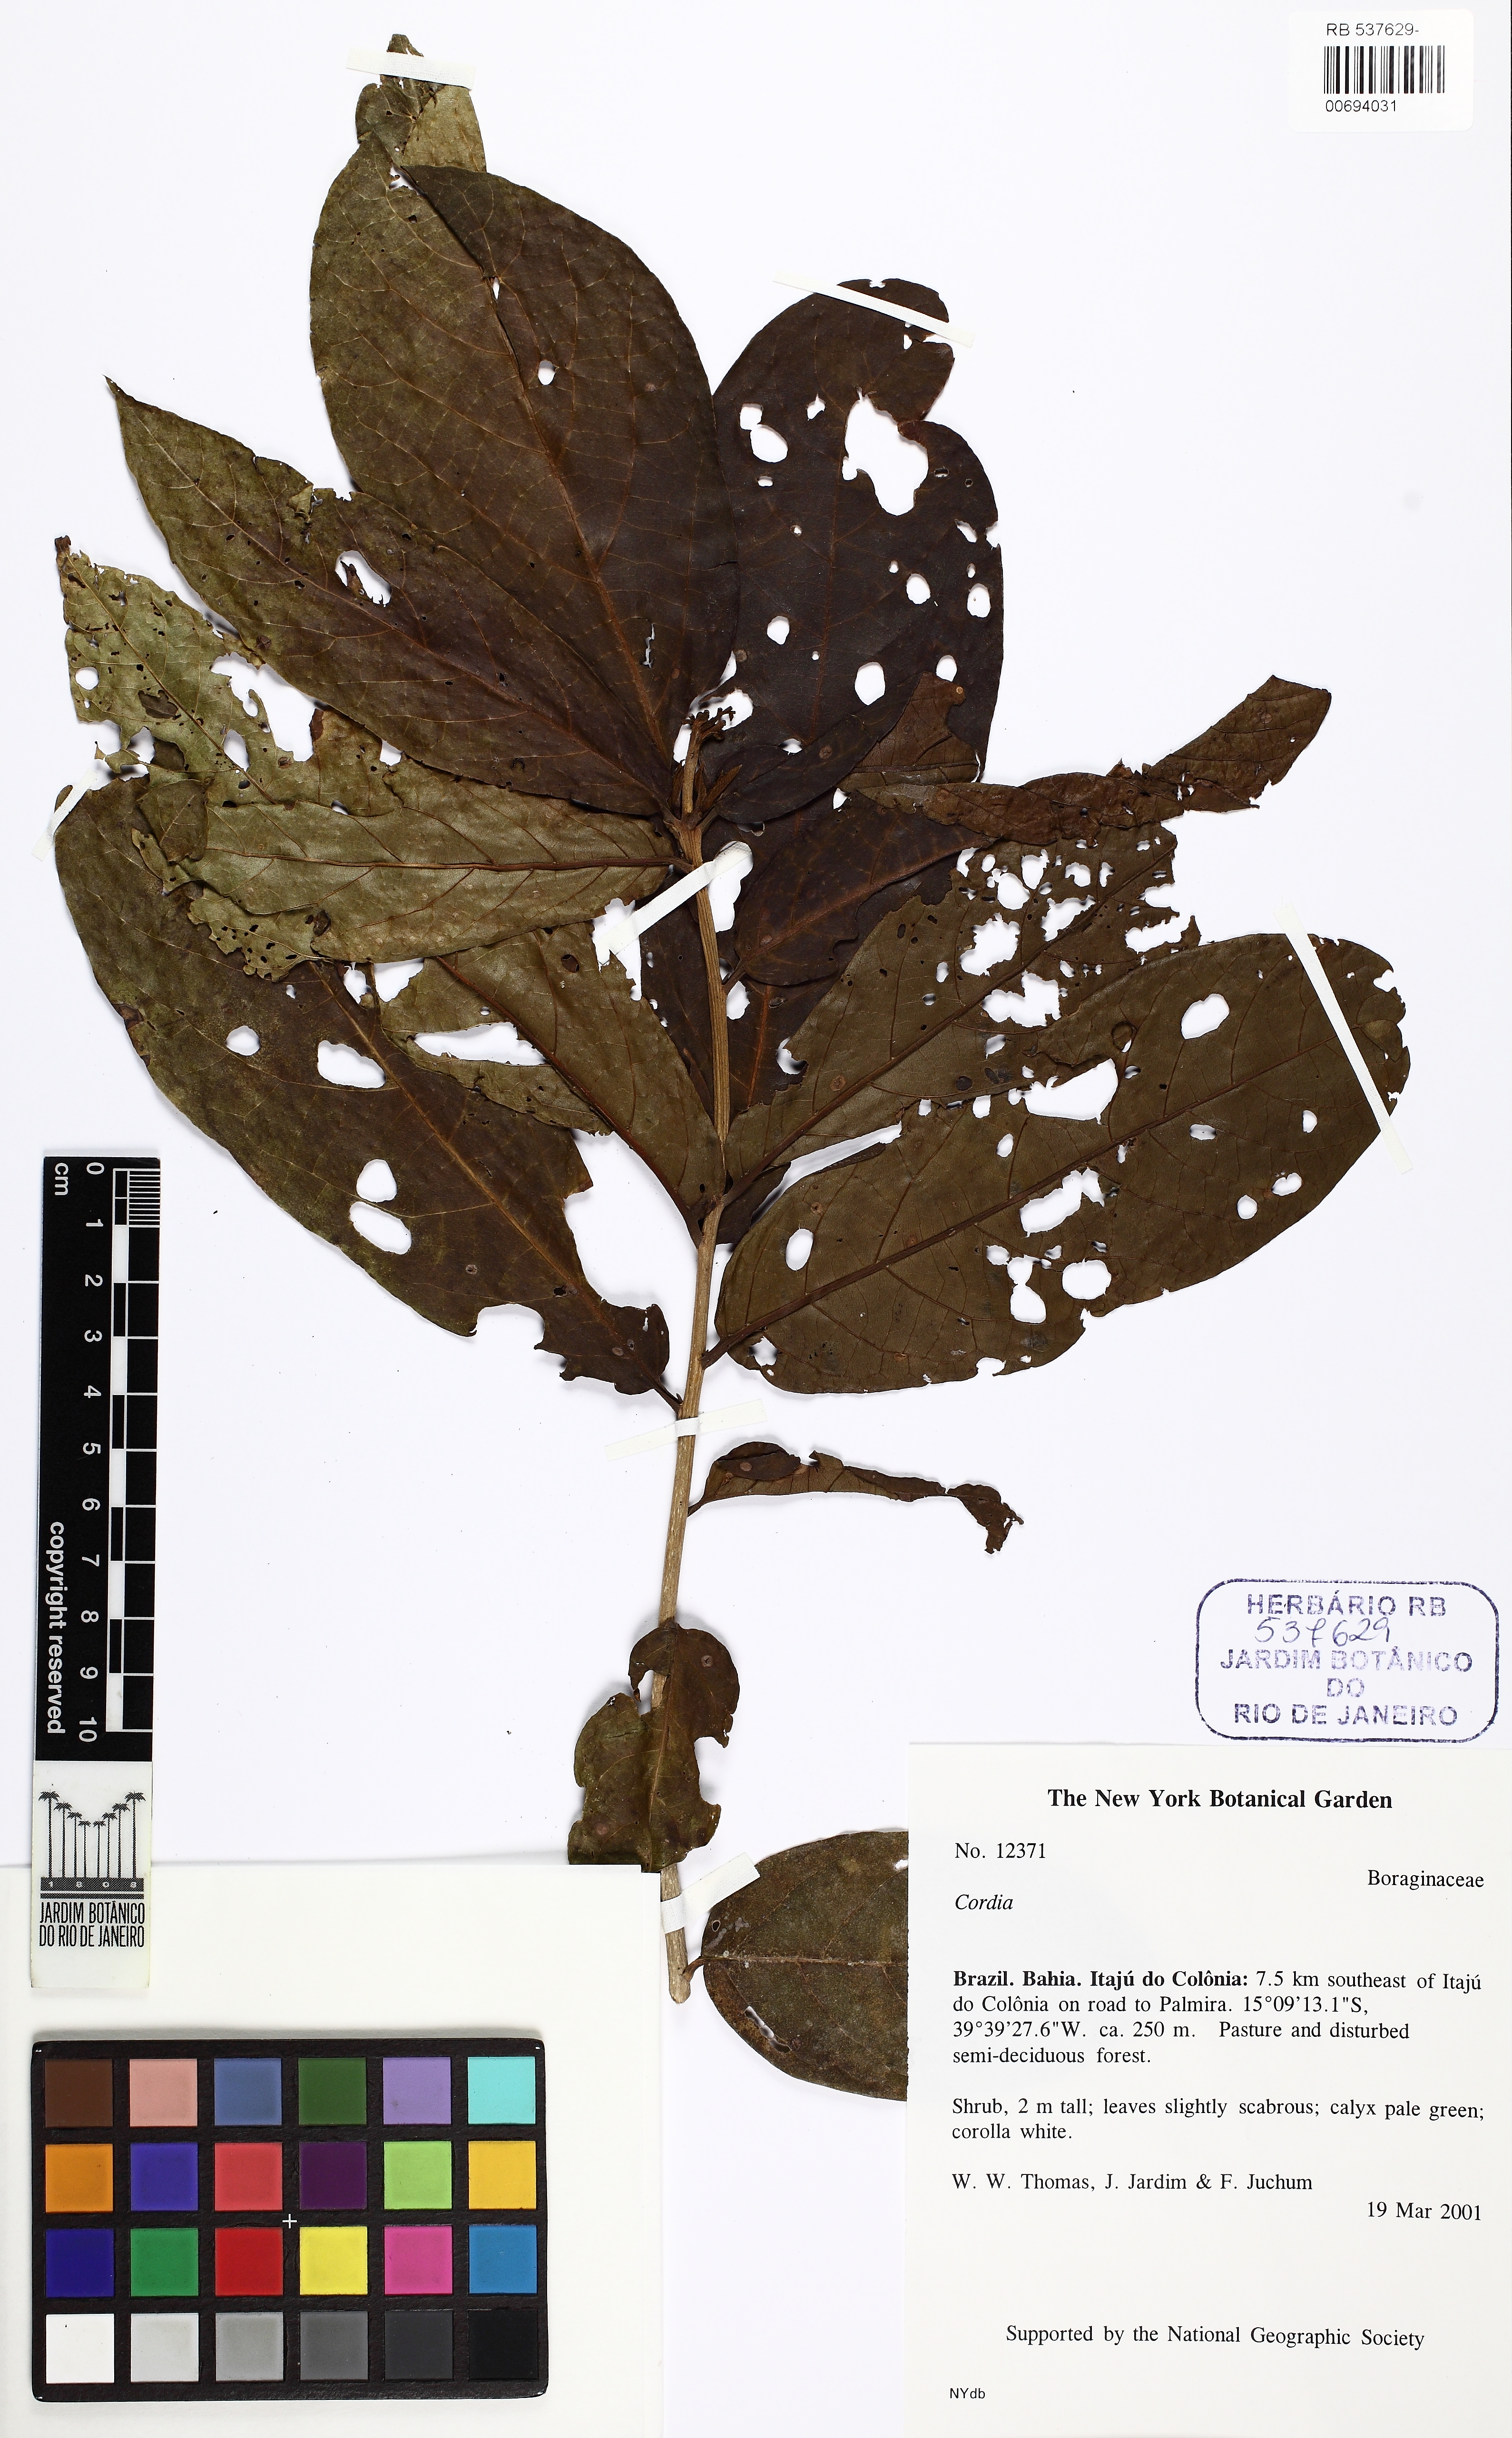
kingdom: Plantae
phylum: Tracheophyta
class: Magnoliopsida
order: Boraginales
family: Cordiaceae
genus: Cordia
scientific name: Cordia
